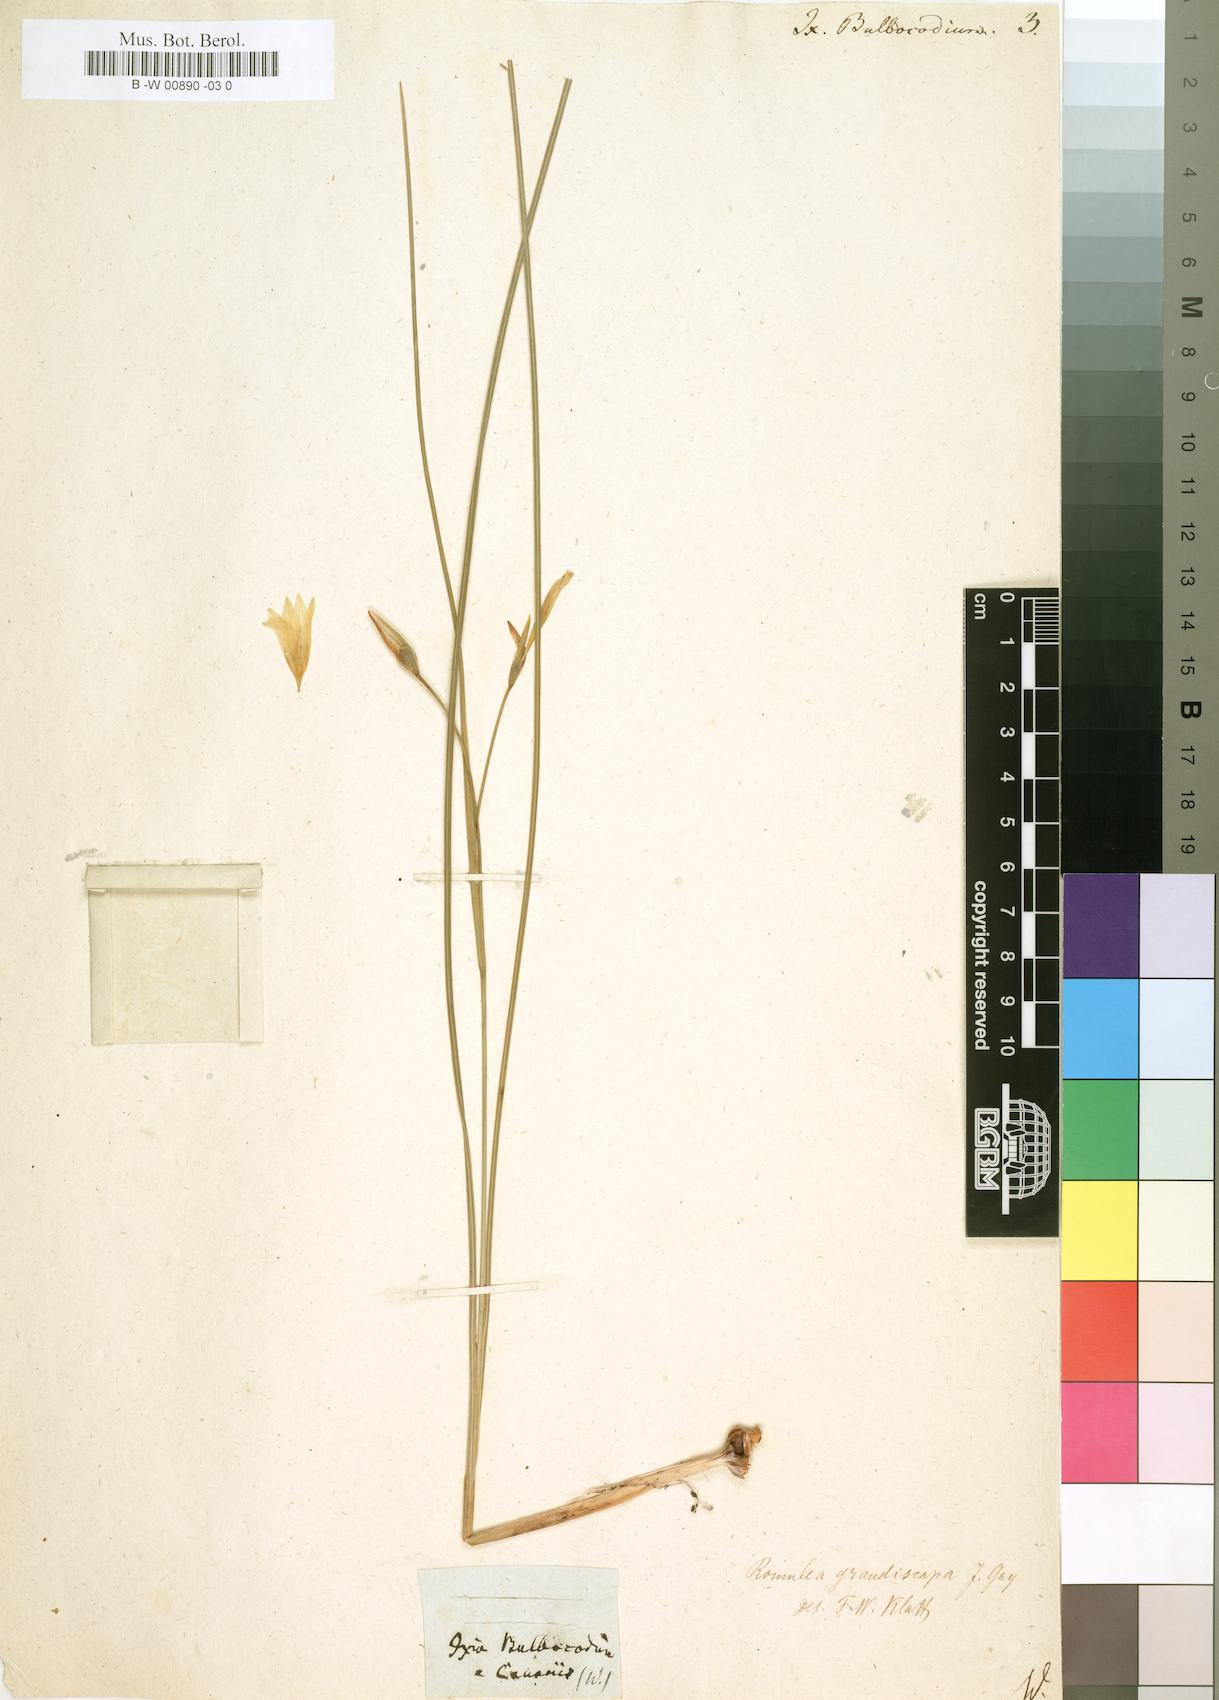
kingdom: Plantae
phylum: Tracheophyta
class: Liliopsida
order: Asparagales
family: Iridaceae
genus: Ixia
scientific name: Ixia bulbocodium
